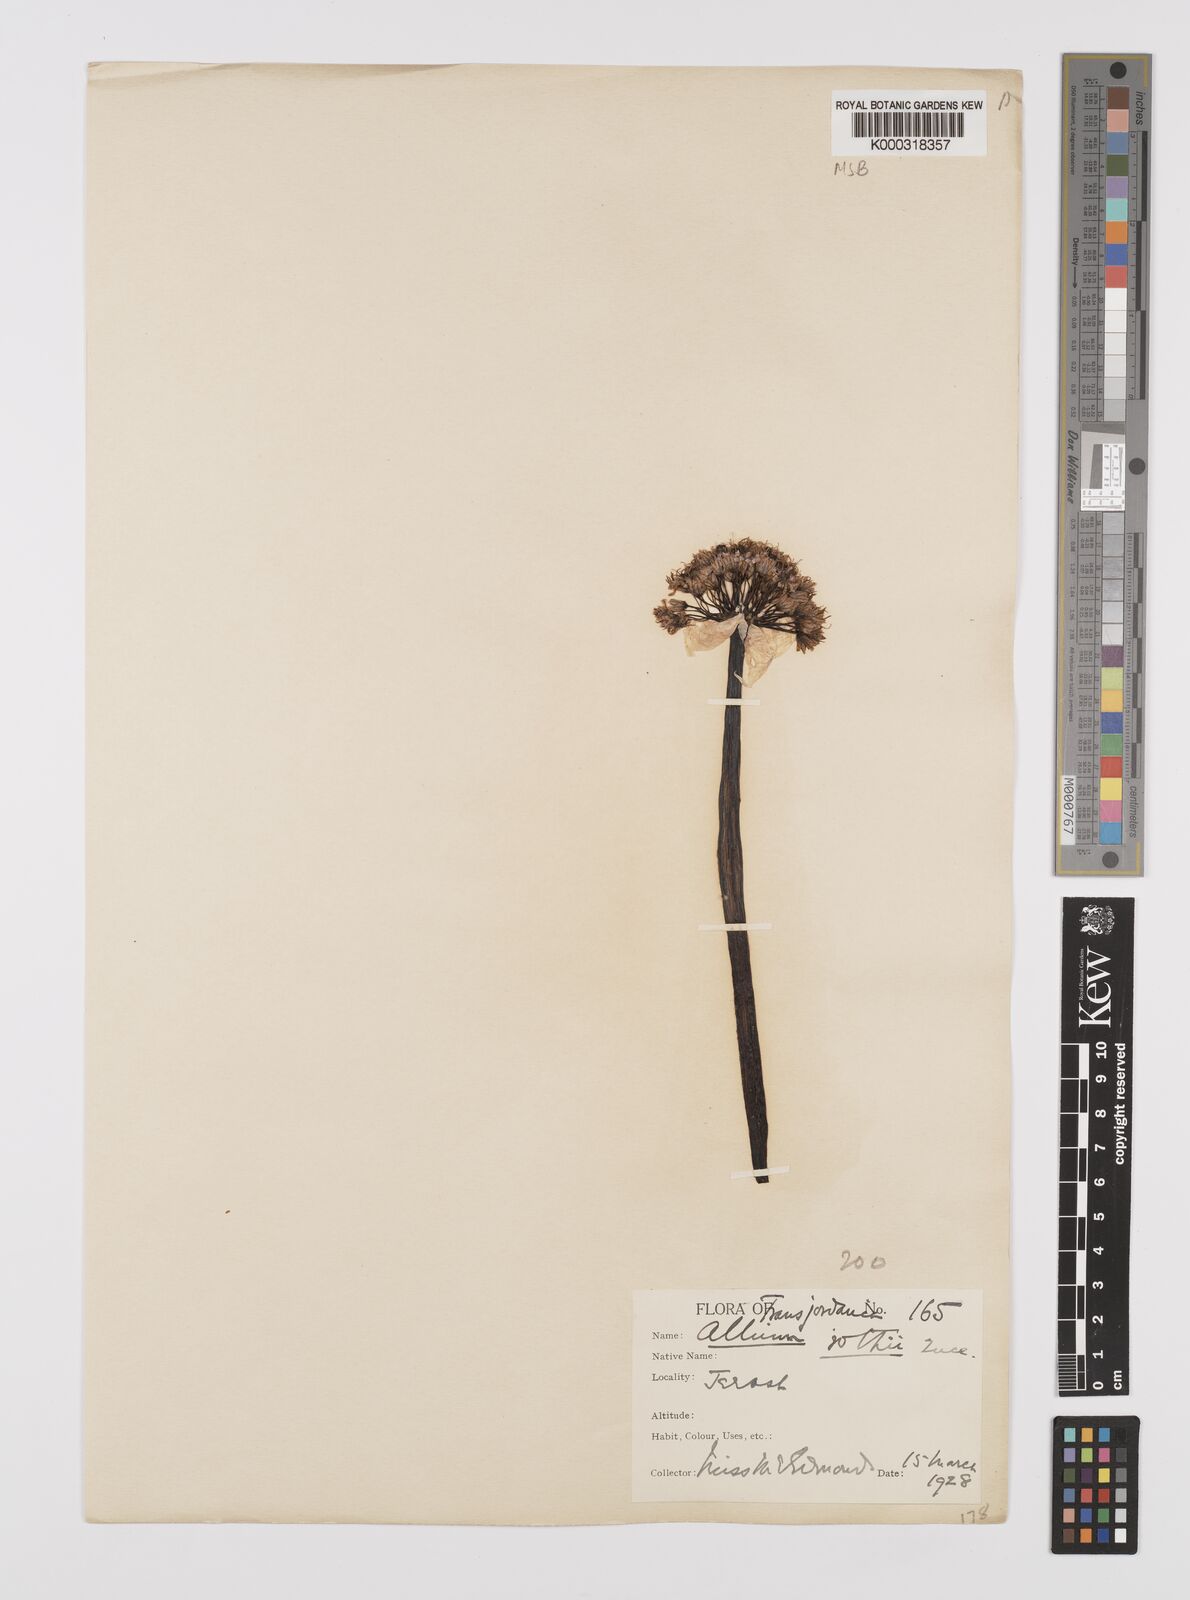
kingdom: Plantae
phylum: Tracheophyta
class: Liliopsida
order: Asparagales
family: Amaryllidaceae
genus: Allium
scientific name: Allium rothii
